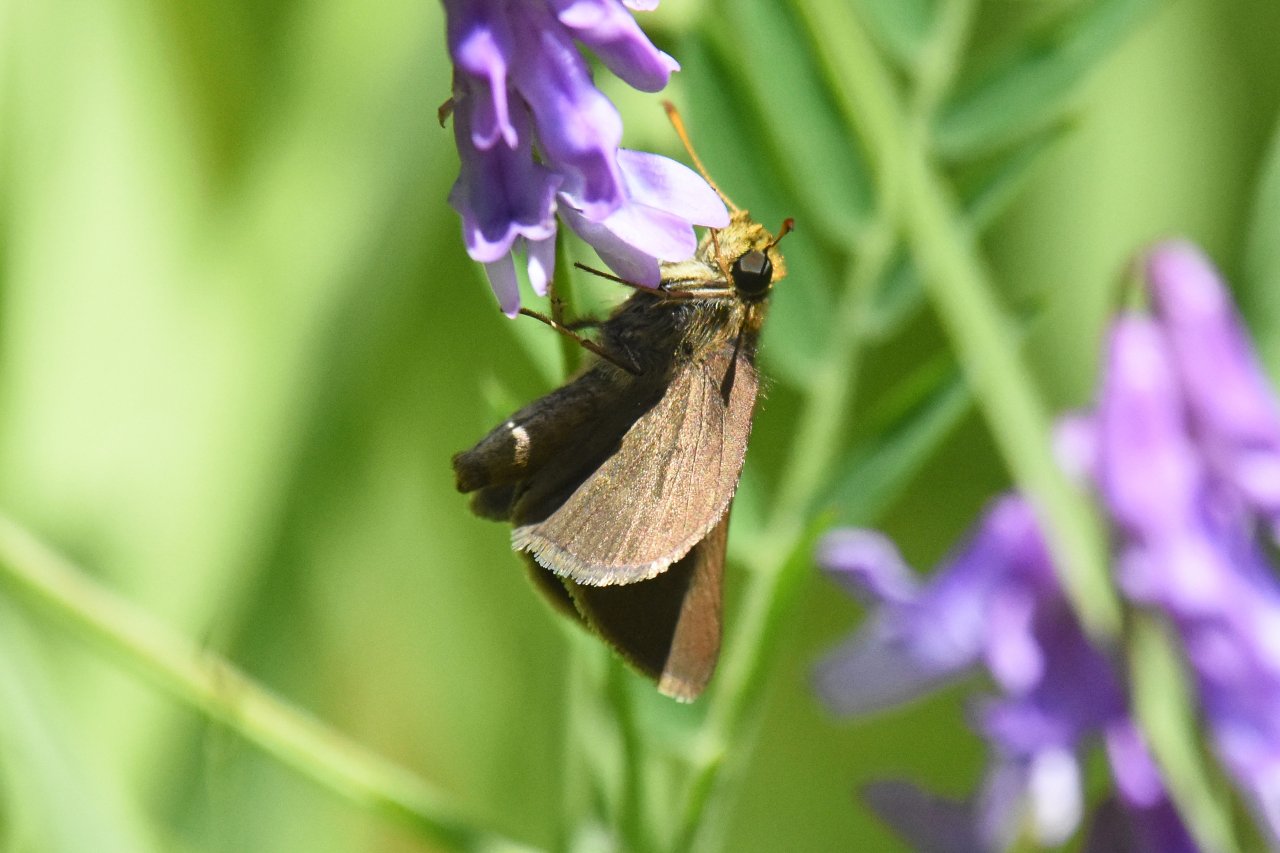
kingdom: Animalia
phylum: Arthropoda
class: Insecta
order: Lepidoptera
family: Hesperiidae
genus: Euphyes
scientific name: Euphyes vestris
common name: Dun Skipper
